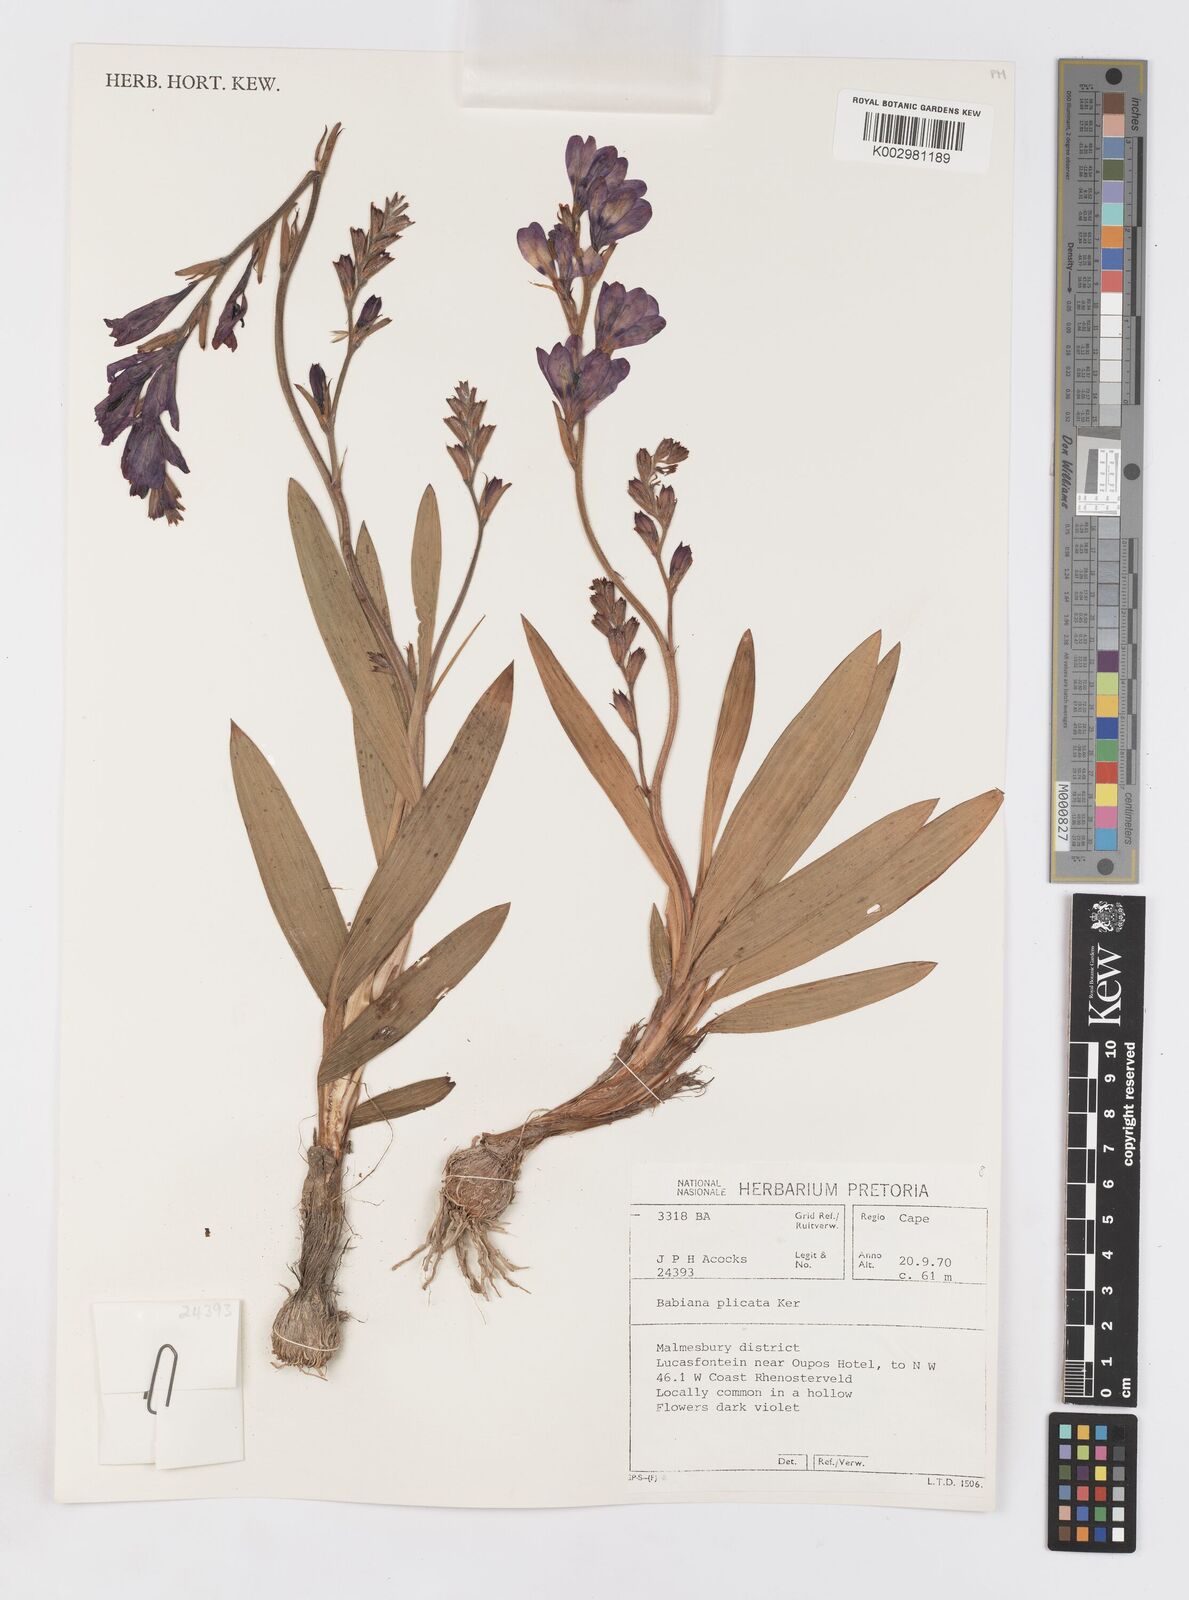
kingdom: Plantae
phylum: Tracheophyta
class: Liliopsida
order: Asparagales
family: Iridaceae
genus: Babiana
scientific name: Babiana fragrans
